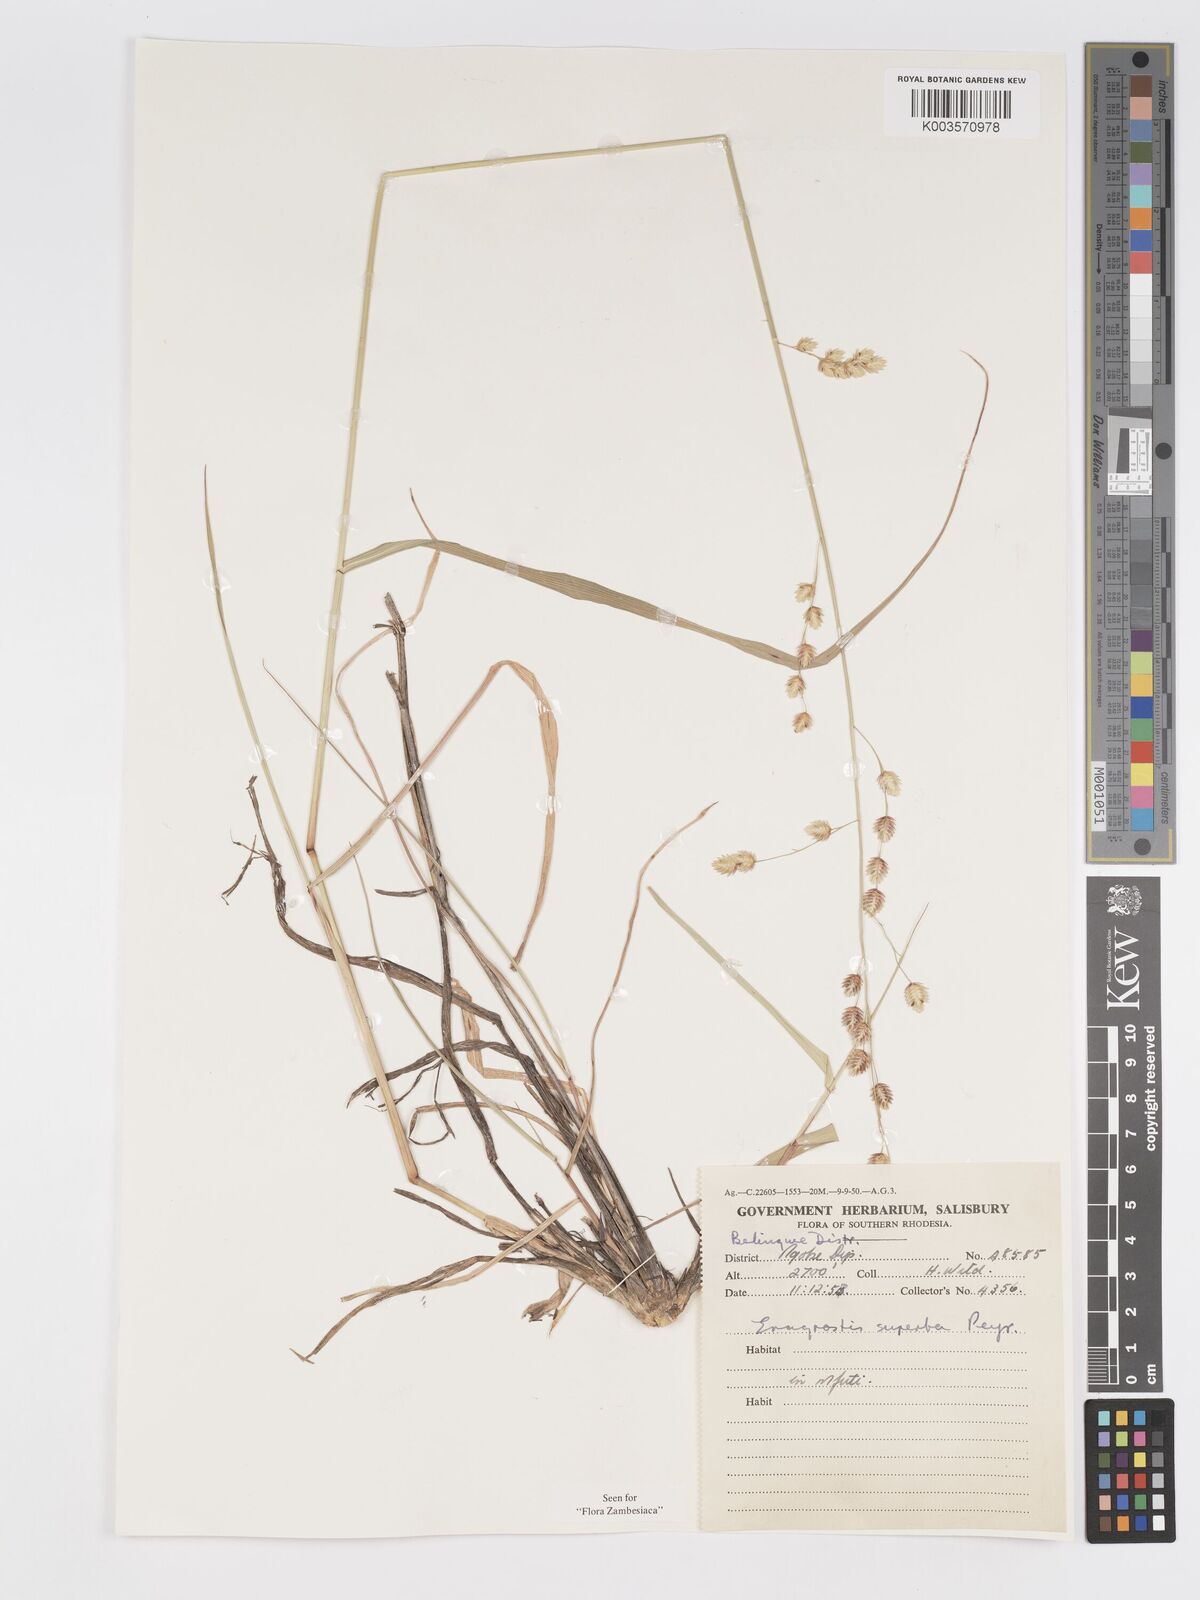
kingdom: Plantae
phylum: Tracheophyta
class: Liliopsida
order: Poales
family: Poaceae
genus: Eragrostis
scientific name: Eragrostis superba
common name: Wilman lovegrass
